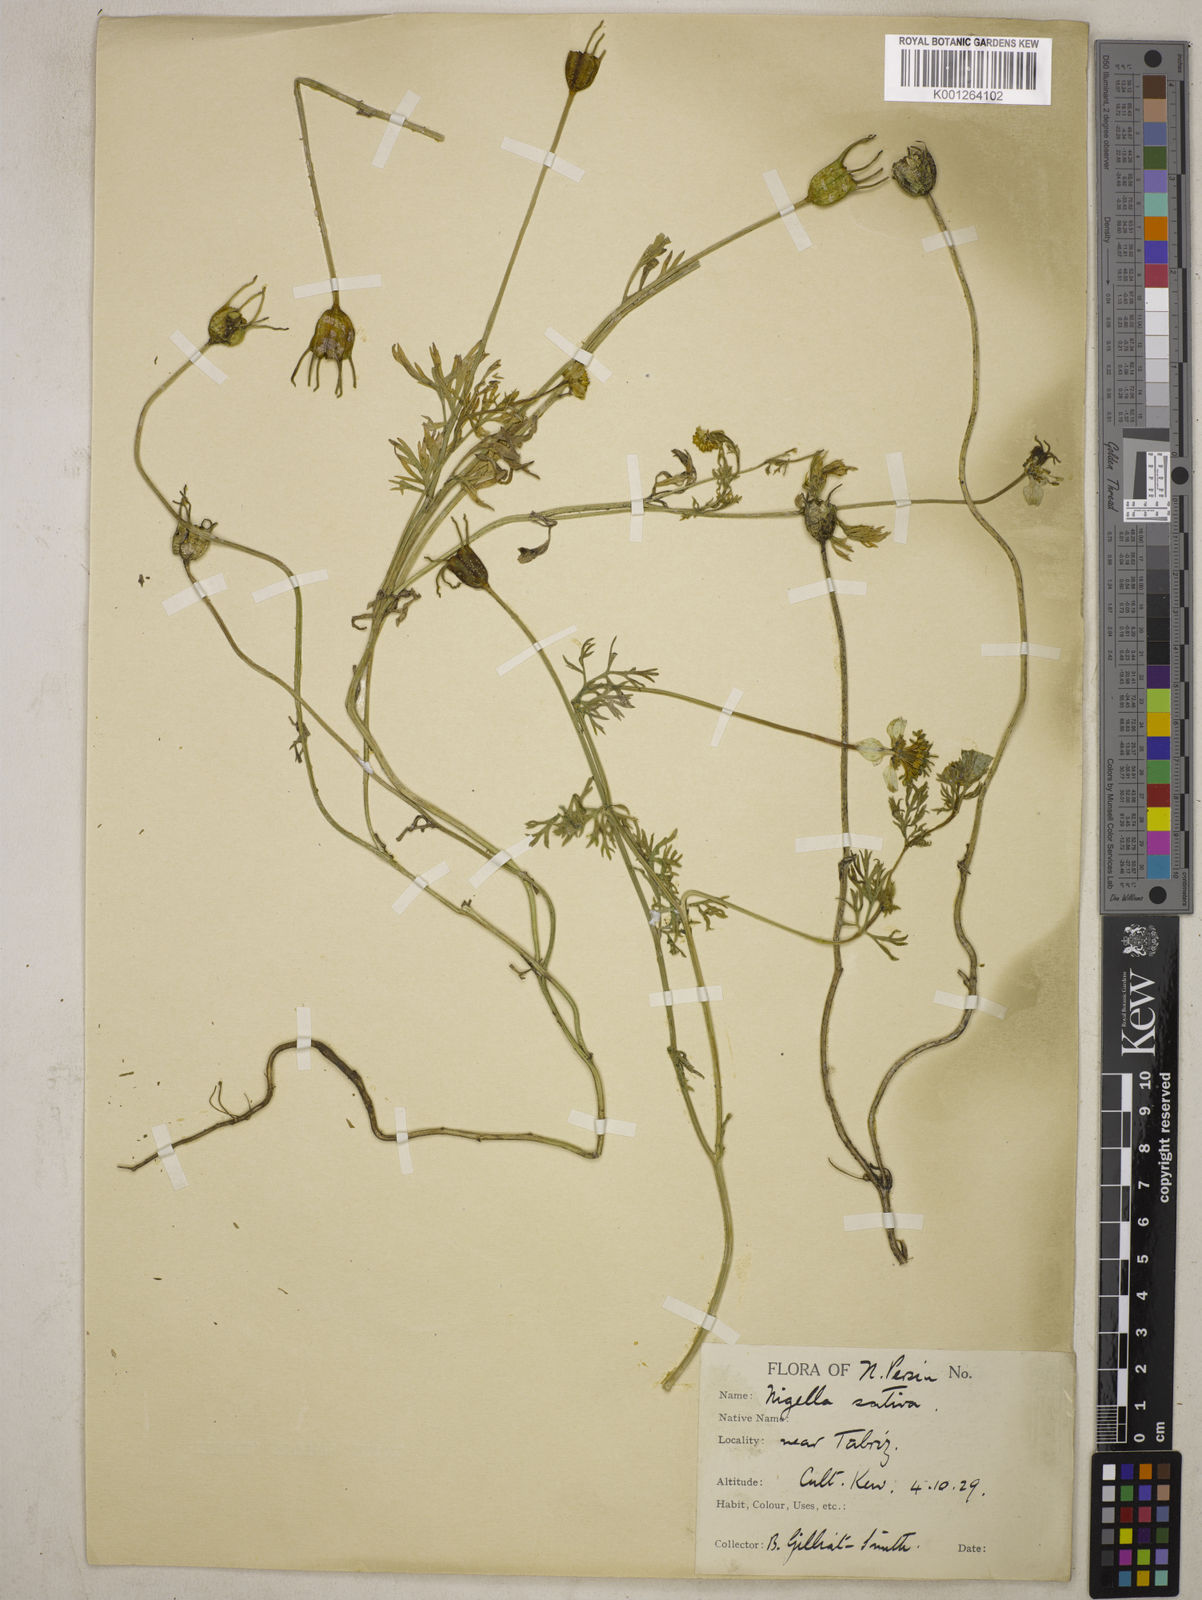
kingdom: Plantae
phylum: Tracheophyta
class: Magnoliopsida
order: Ranunculales
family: Ranunculaceae
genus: Nigella
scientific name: Nigella sativa
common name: Black-cumin
